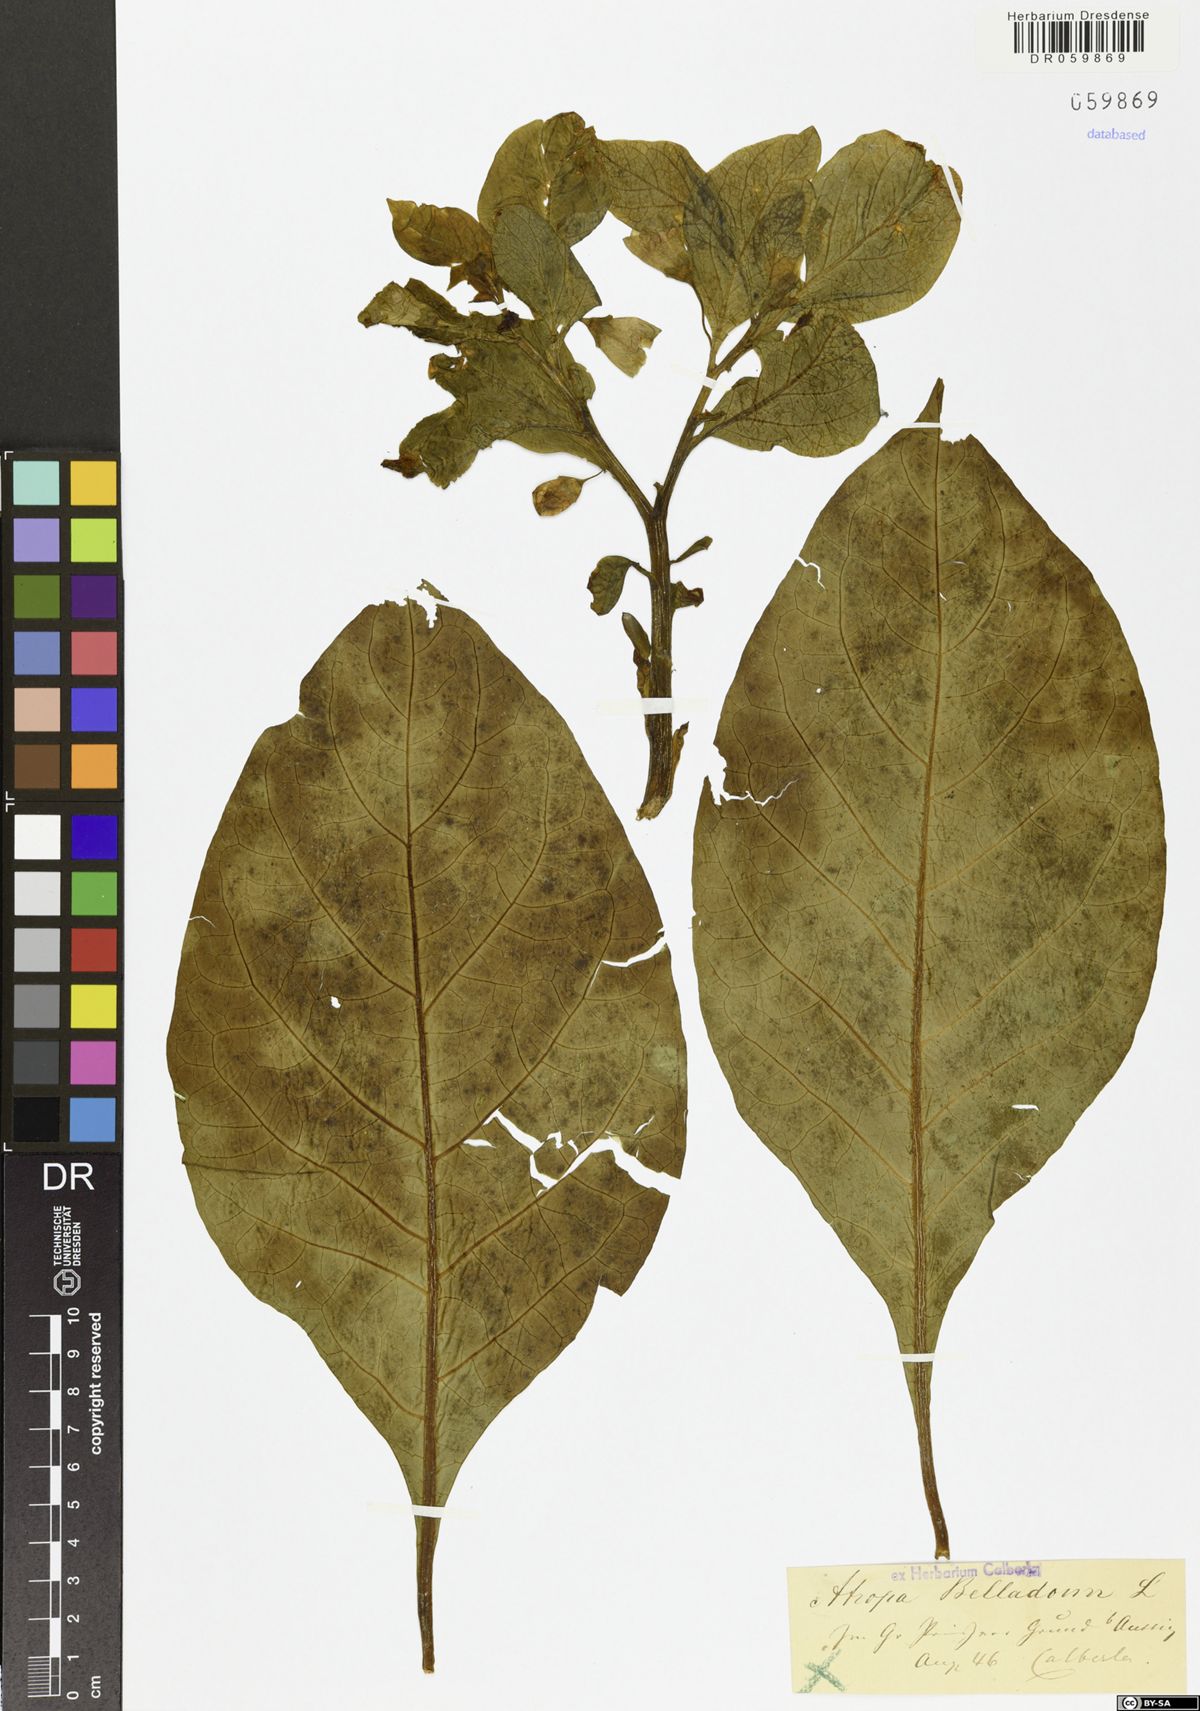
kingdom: Plantae
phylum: Tracheophyta
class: Magnoliopsida
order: Solanales
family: Solanaceae
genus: Atropa
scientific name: Atropa belladonna
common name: Deadly nightshade
